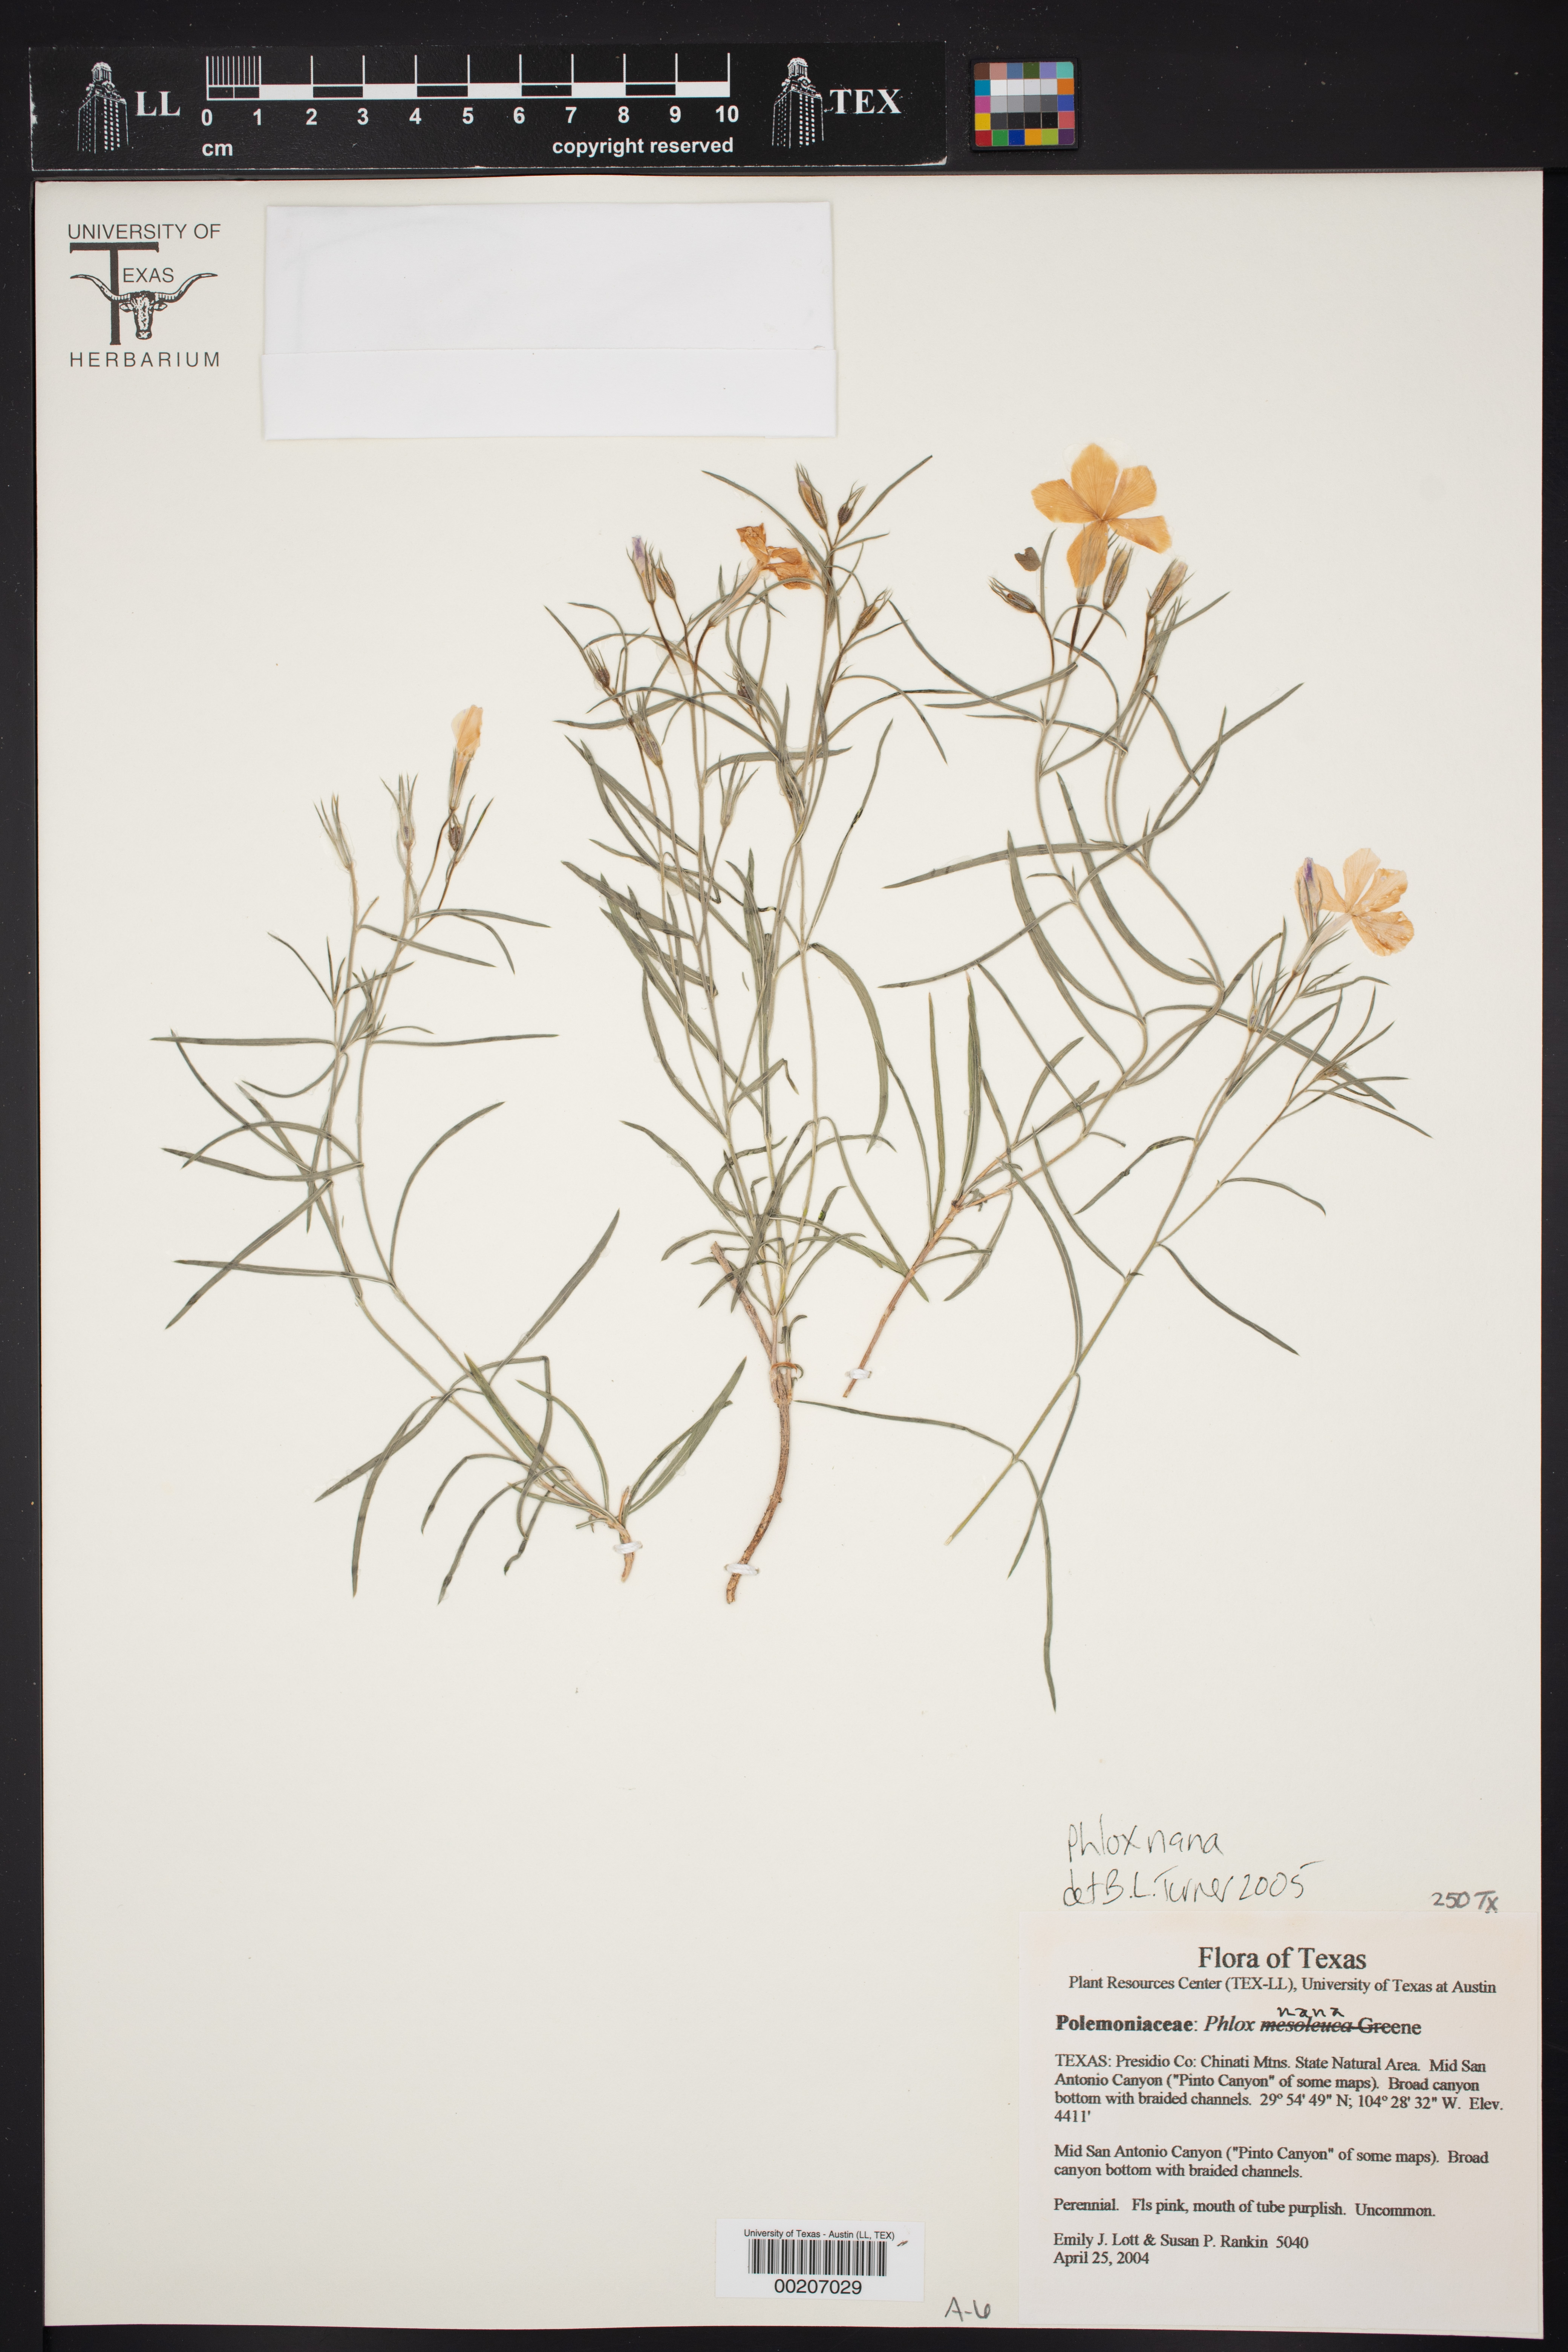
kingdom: Plantae
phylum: Tracheophyta
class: Magnoliopsida
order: Ericales
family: Polemoniaceae
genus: Phlox
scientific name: Phlox nana
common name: Santa fe phlox
